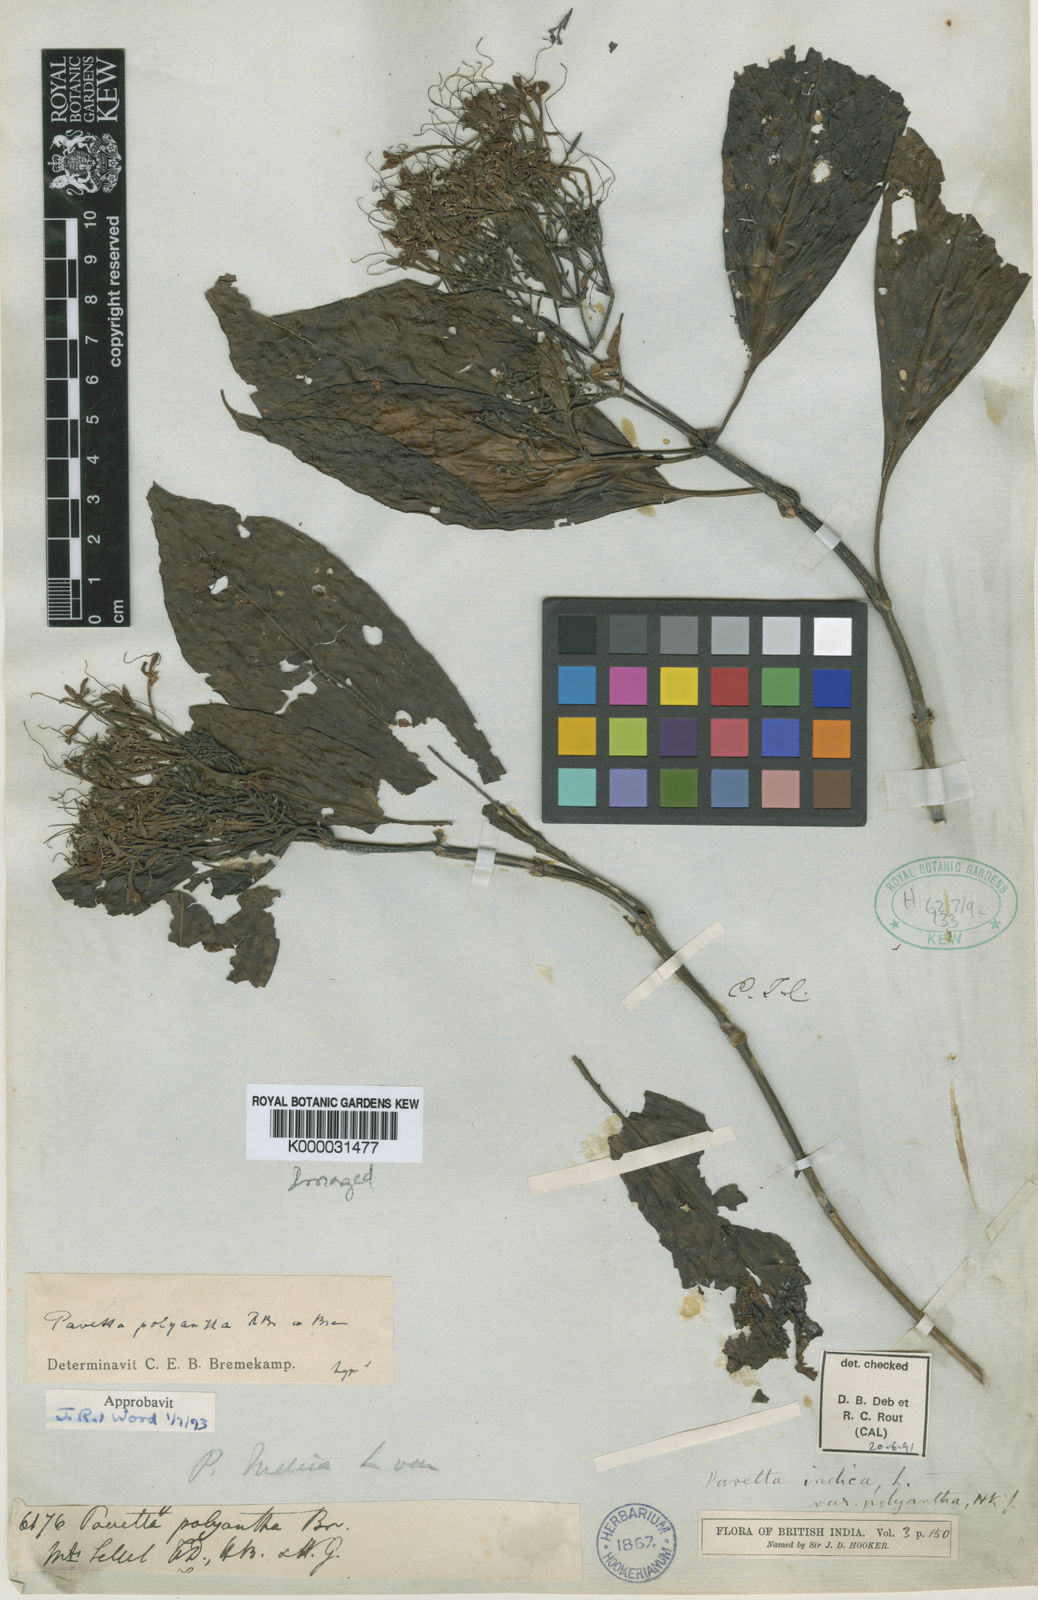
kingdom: Plantae
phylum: Tracheophyta
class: Magnoliopsida
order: Gentianales
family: Rubiaceae
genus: Pavetta
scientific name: Pavetta longibrachiata
